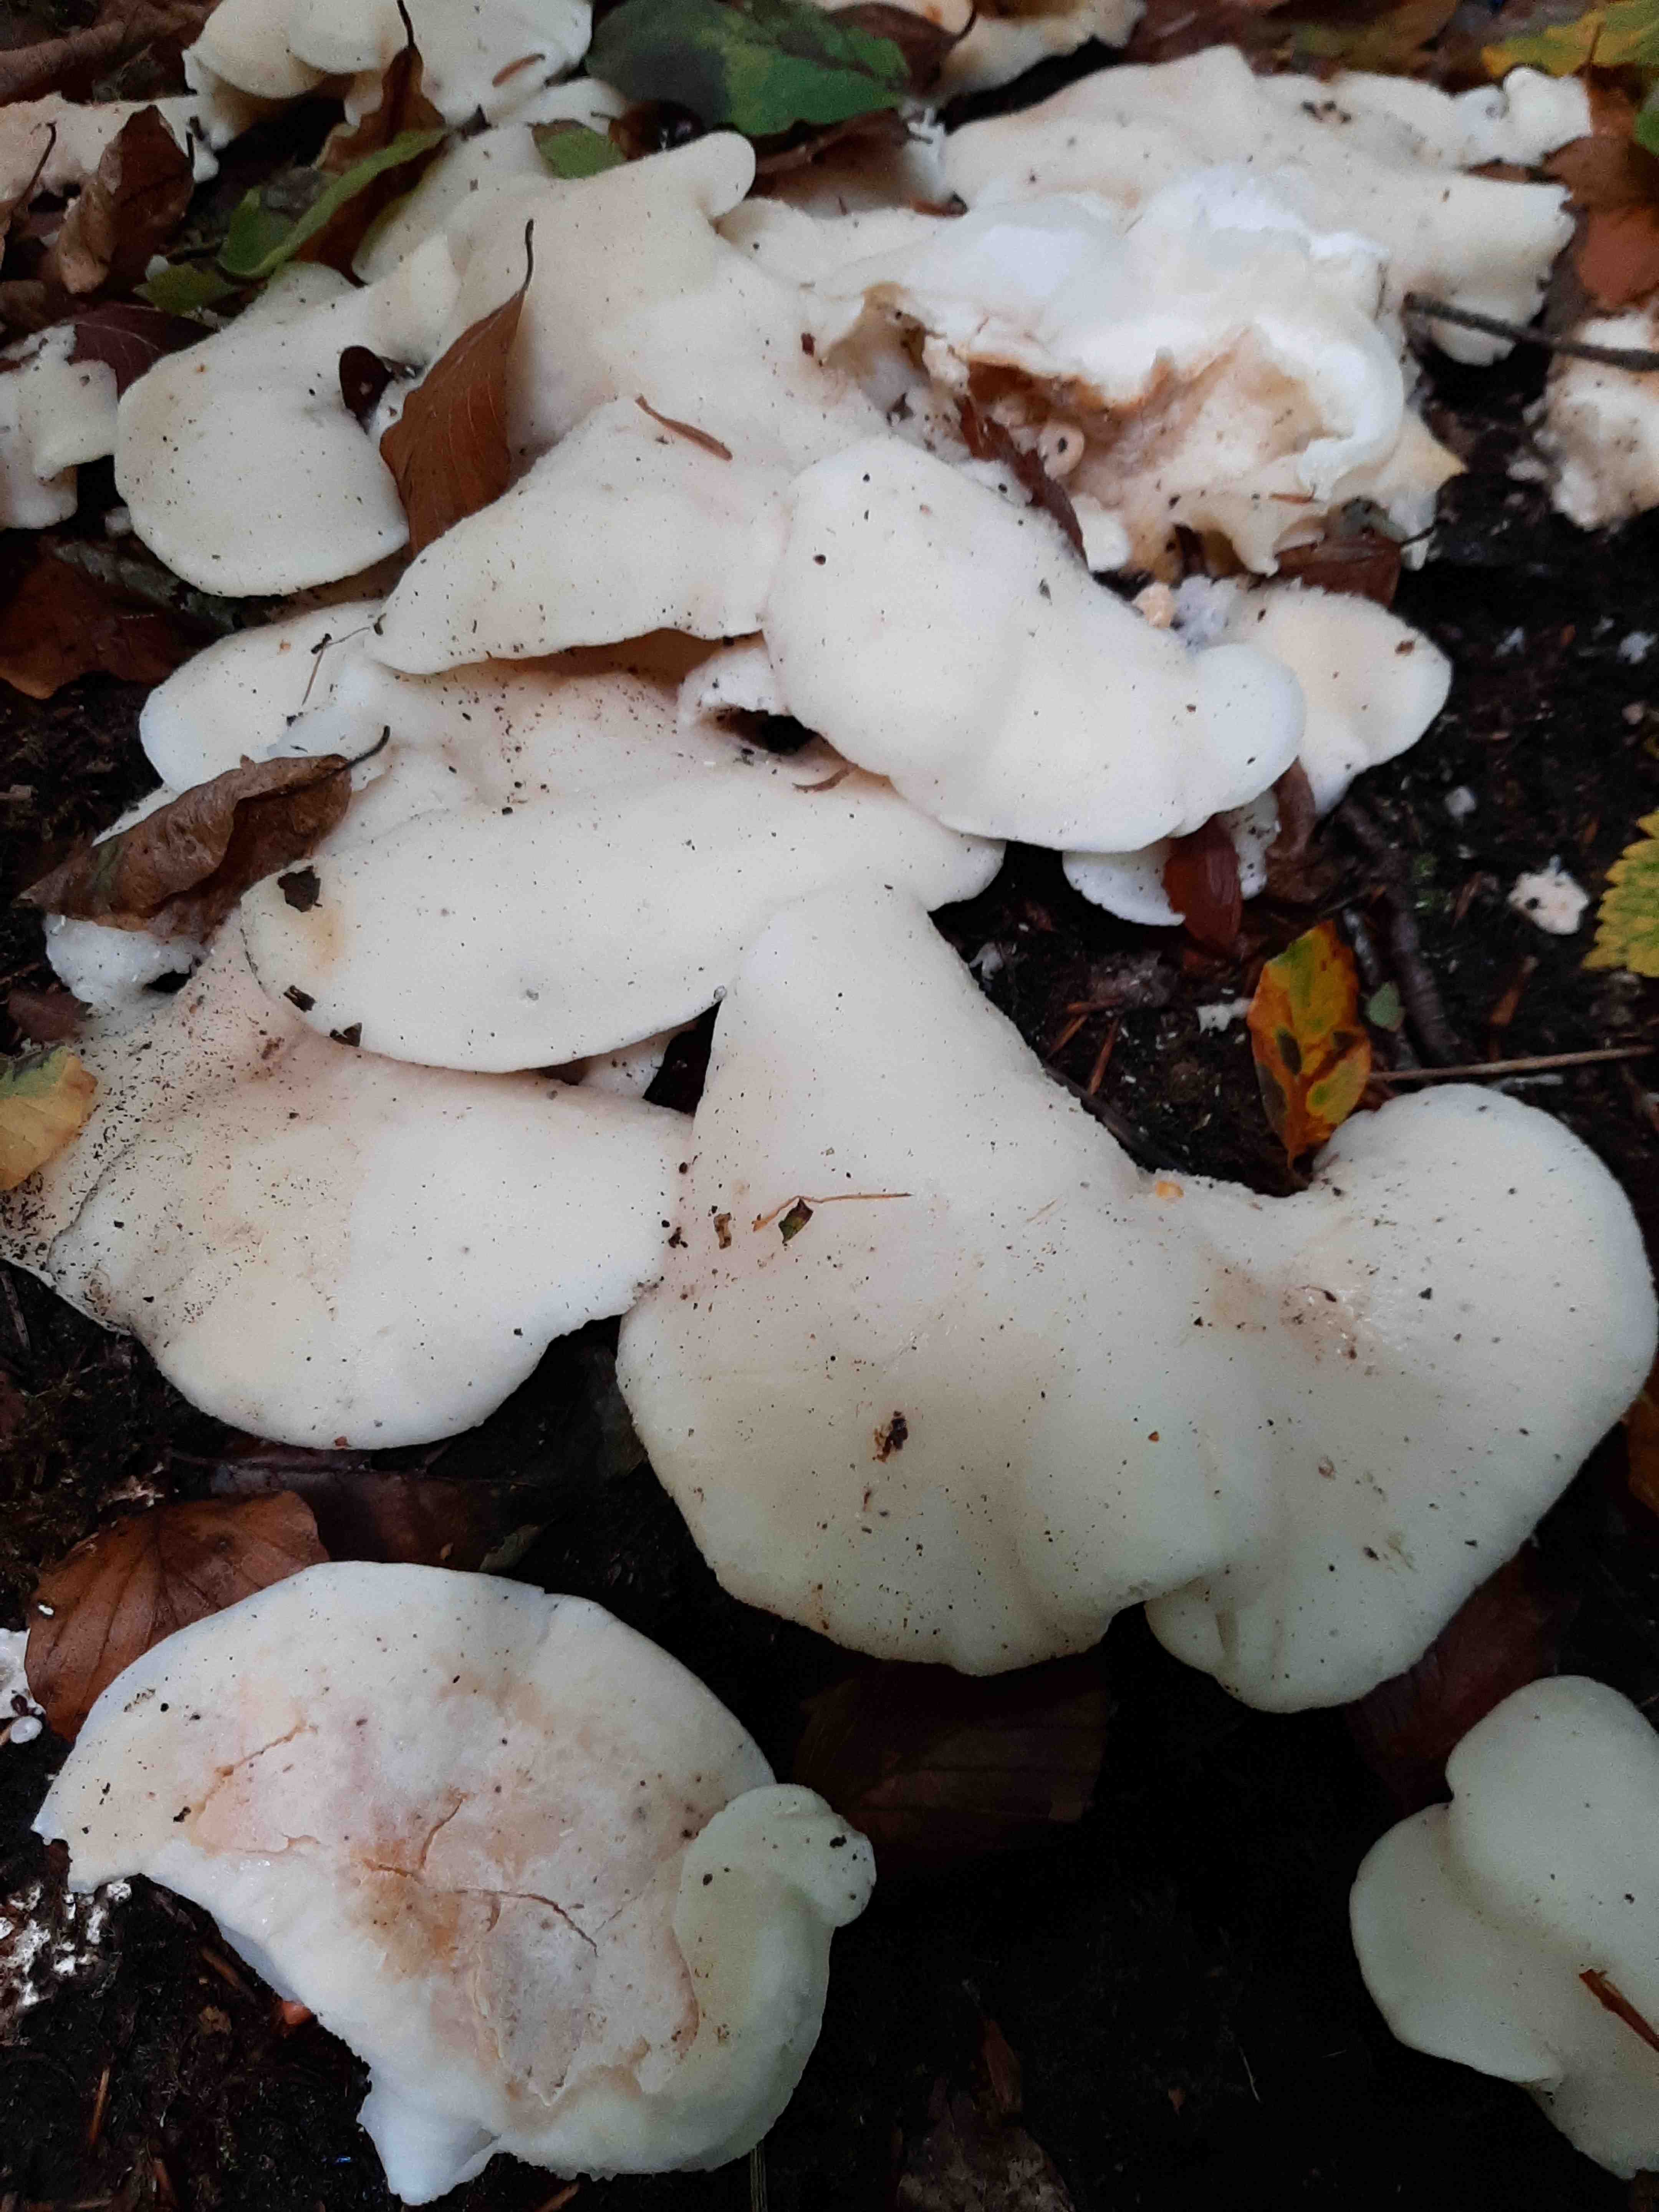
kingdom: Fungi
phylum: Basidiomycota
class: Agaricomycetes
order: Polyporales
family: Incrustoporiaceae
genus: Tyromyces
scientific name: Tyromyces lacteus
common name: mælkehvid kødporesvamp
